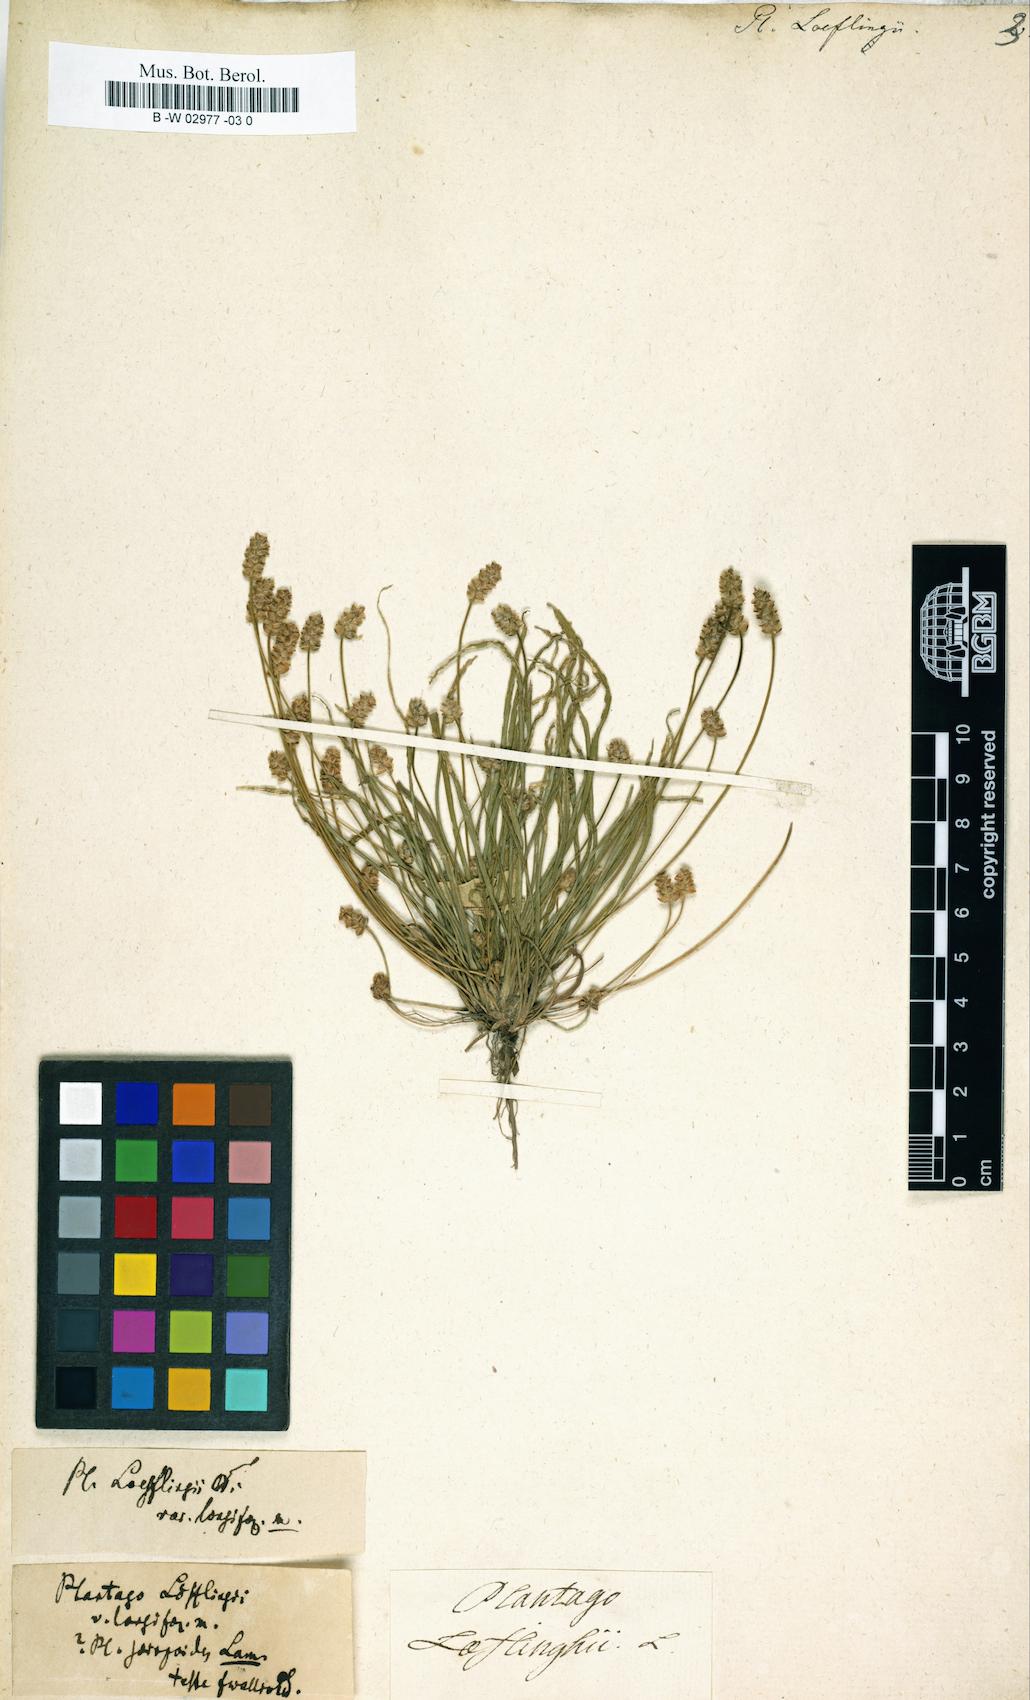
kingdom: Plantae
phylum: Tracheophyta
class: Magnoliopsida
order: Lamiales
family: Plantaginaceae
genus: Plantago
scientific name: Plantago loeflingii
